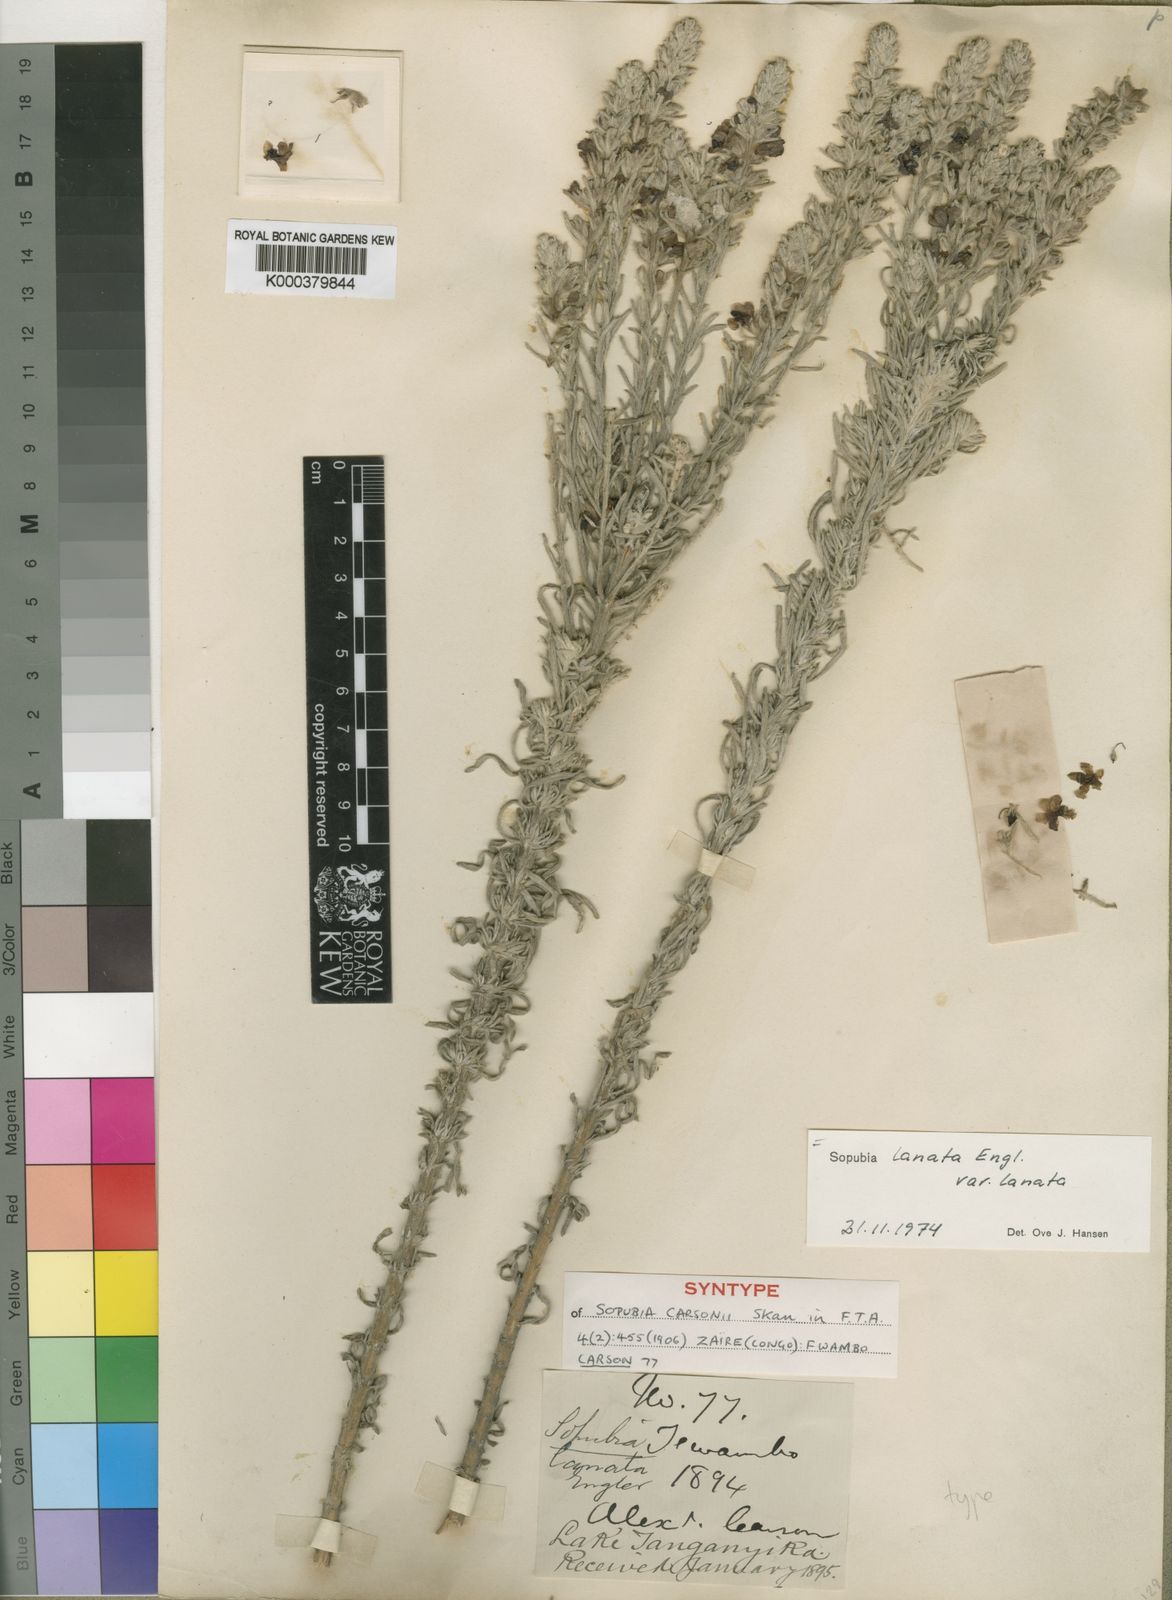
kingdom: Plantae
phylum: Tracheophyta
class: Magnoliopsida
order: Lamiales
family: Orobanchaceae
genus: Sopubia
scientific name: Sopubia lanata
